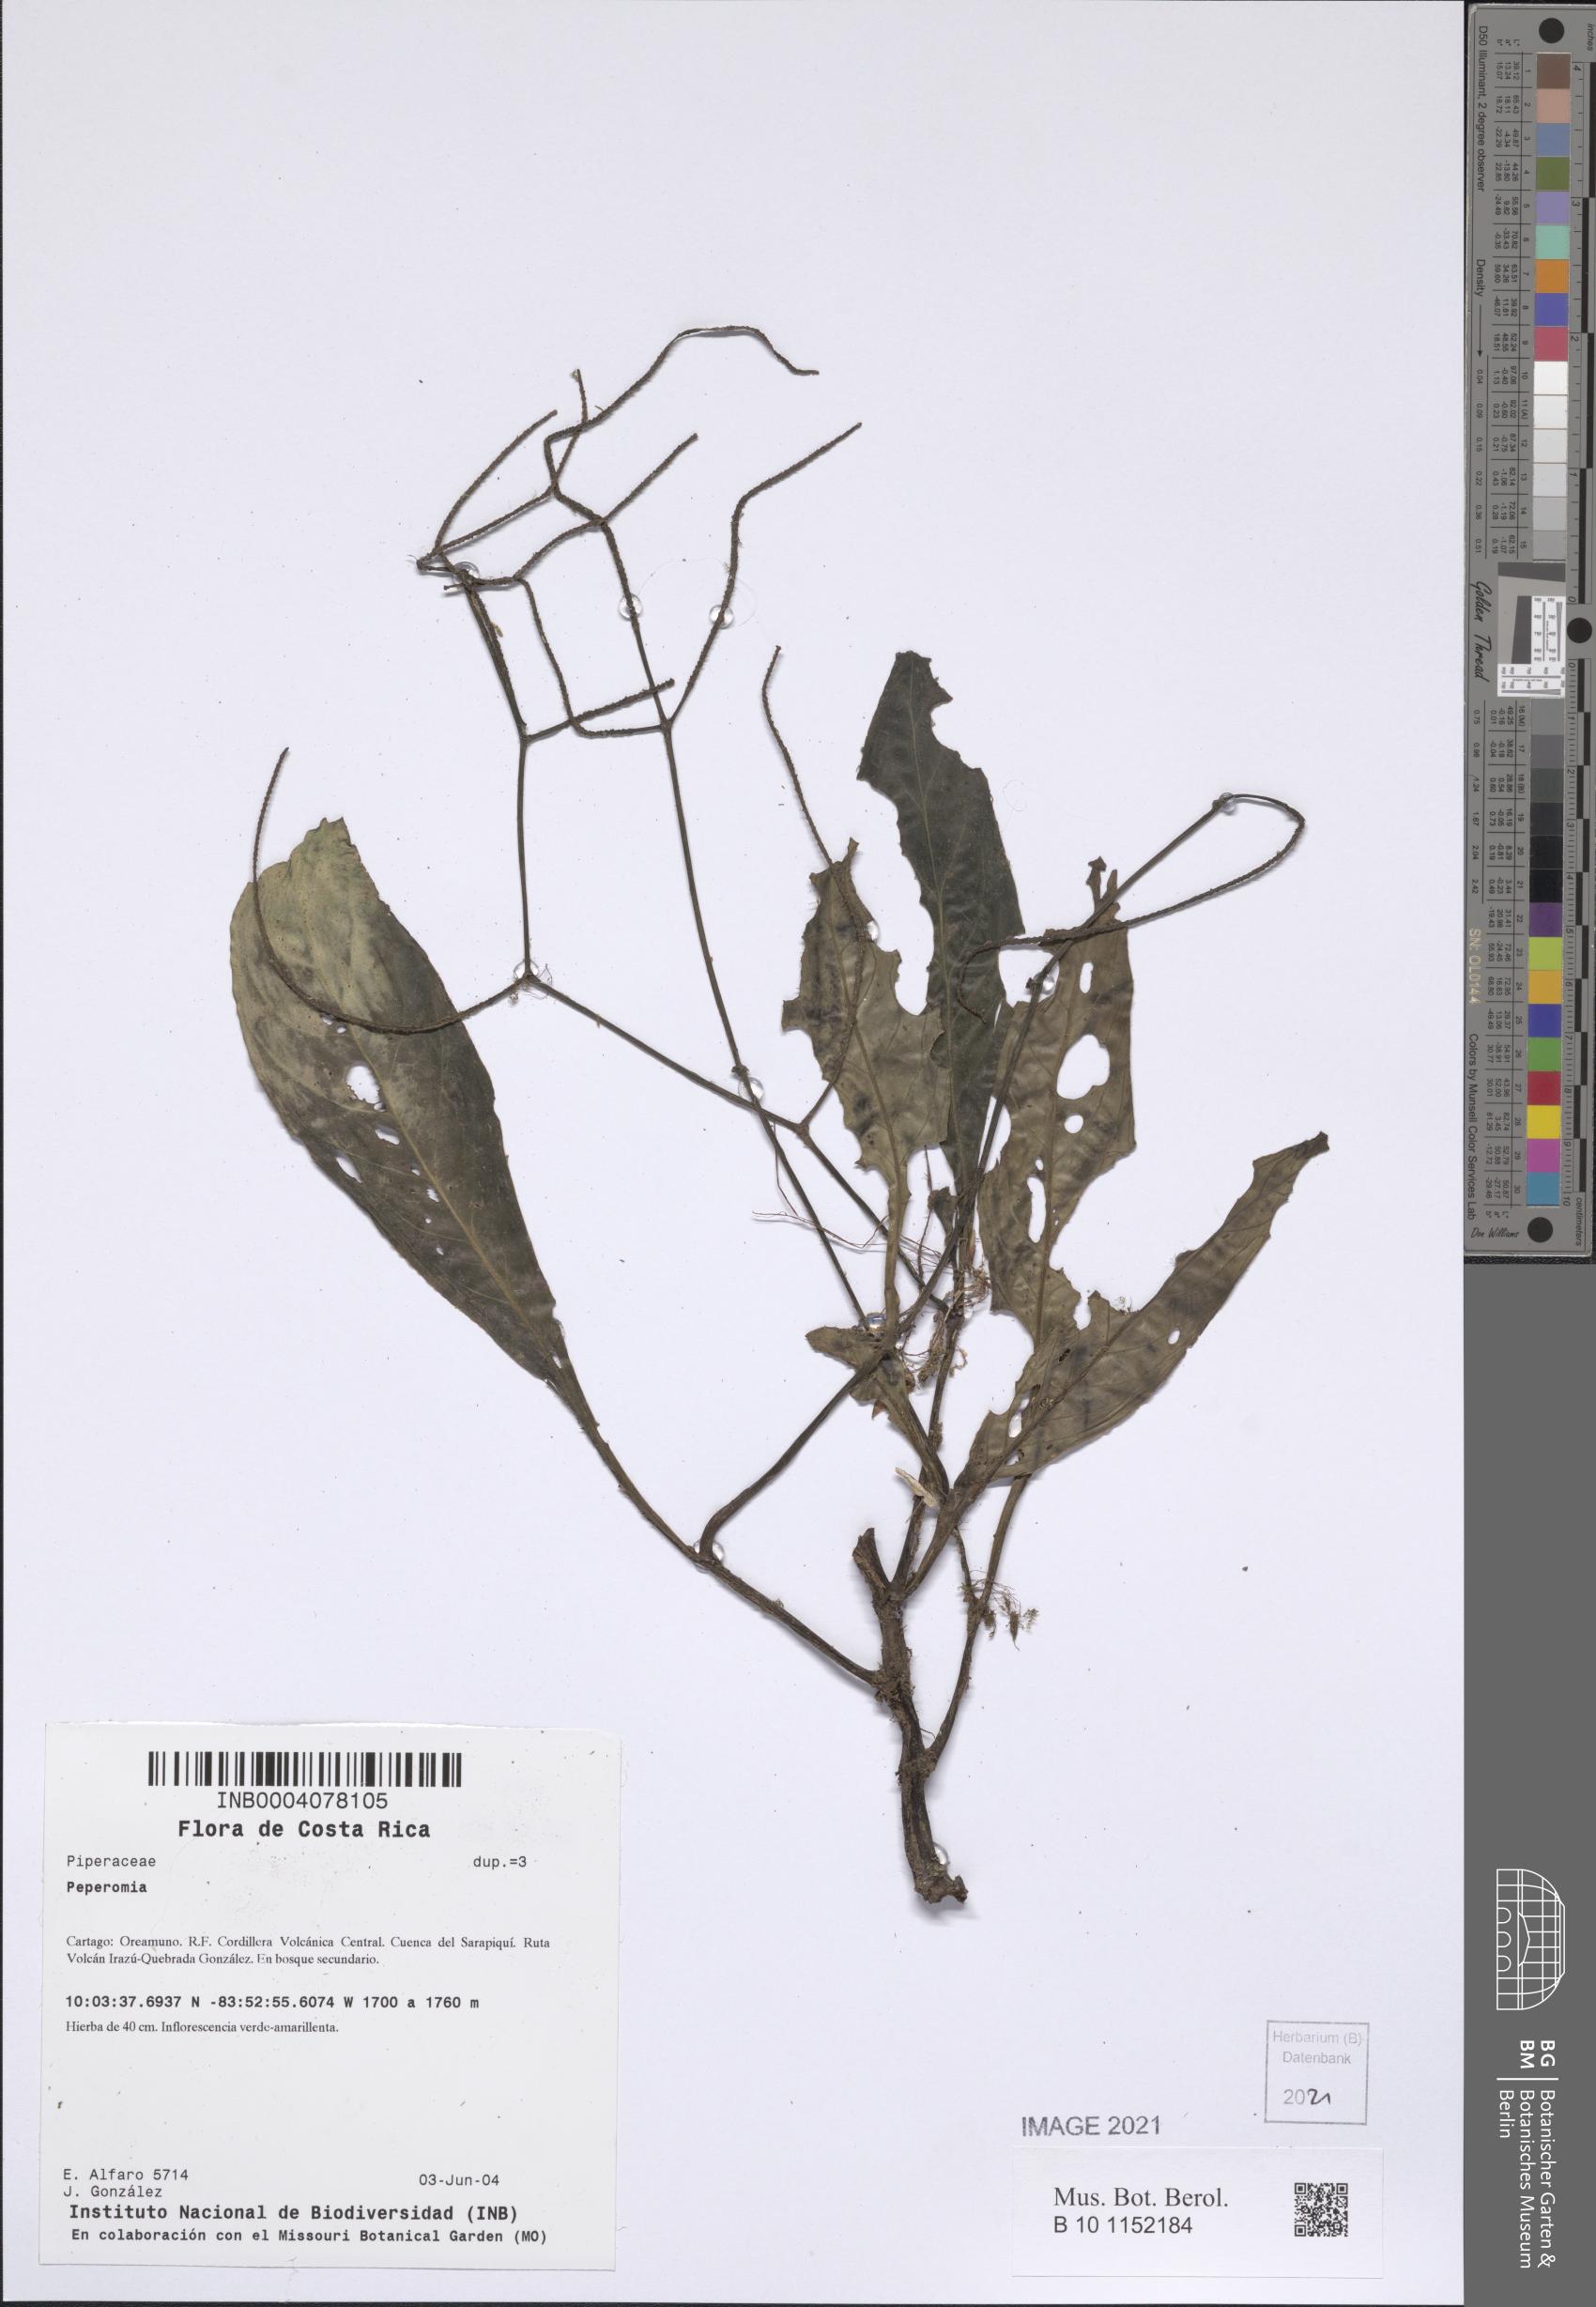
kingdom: Plantae
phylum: Tracheophyta
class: Magnoliopsida
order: Piperales
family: Piperaceae
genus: Peperomia
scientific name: Peperomia
